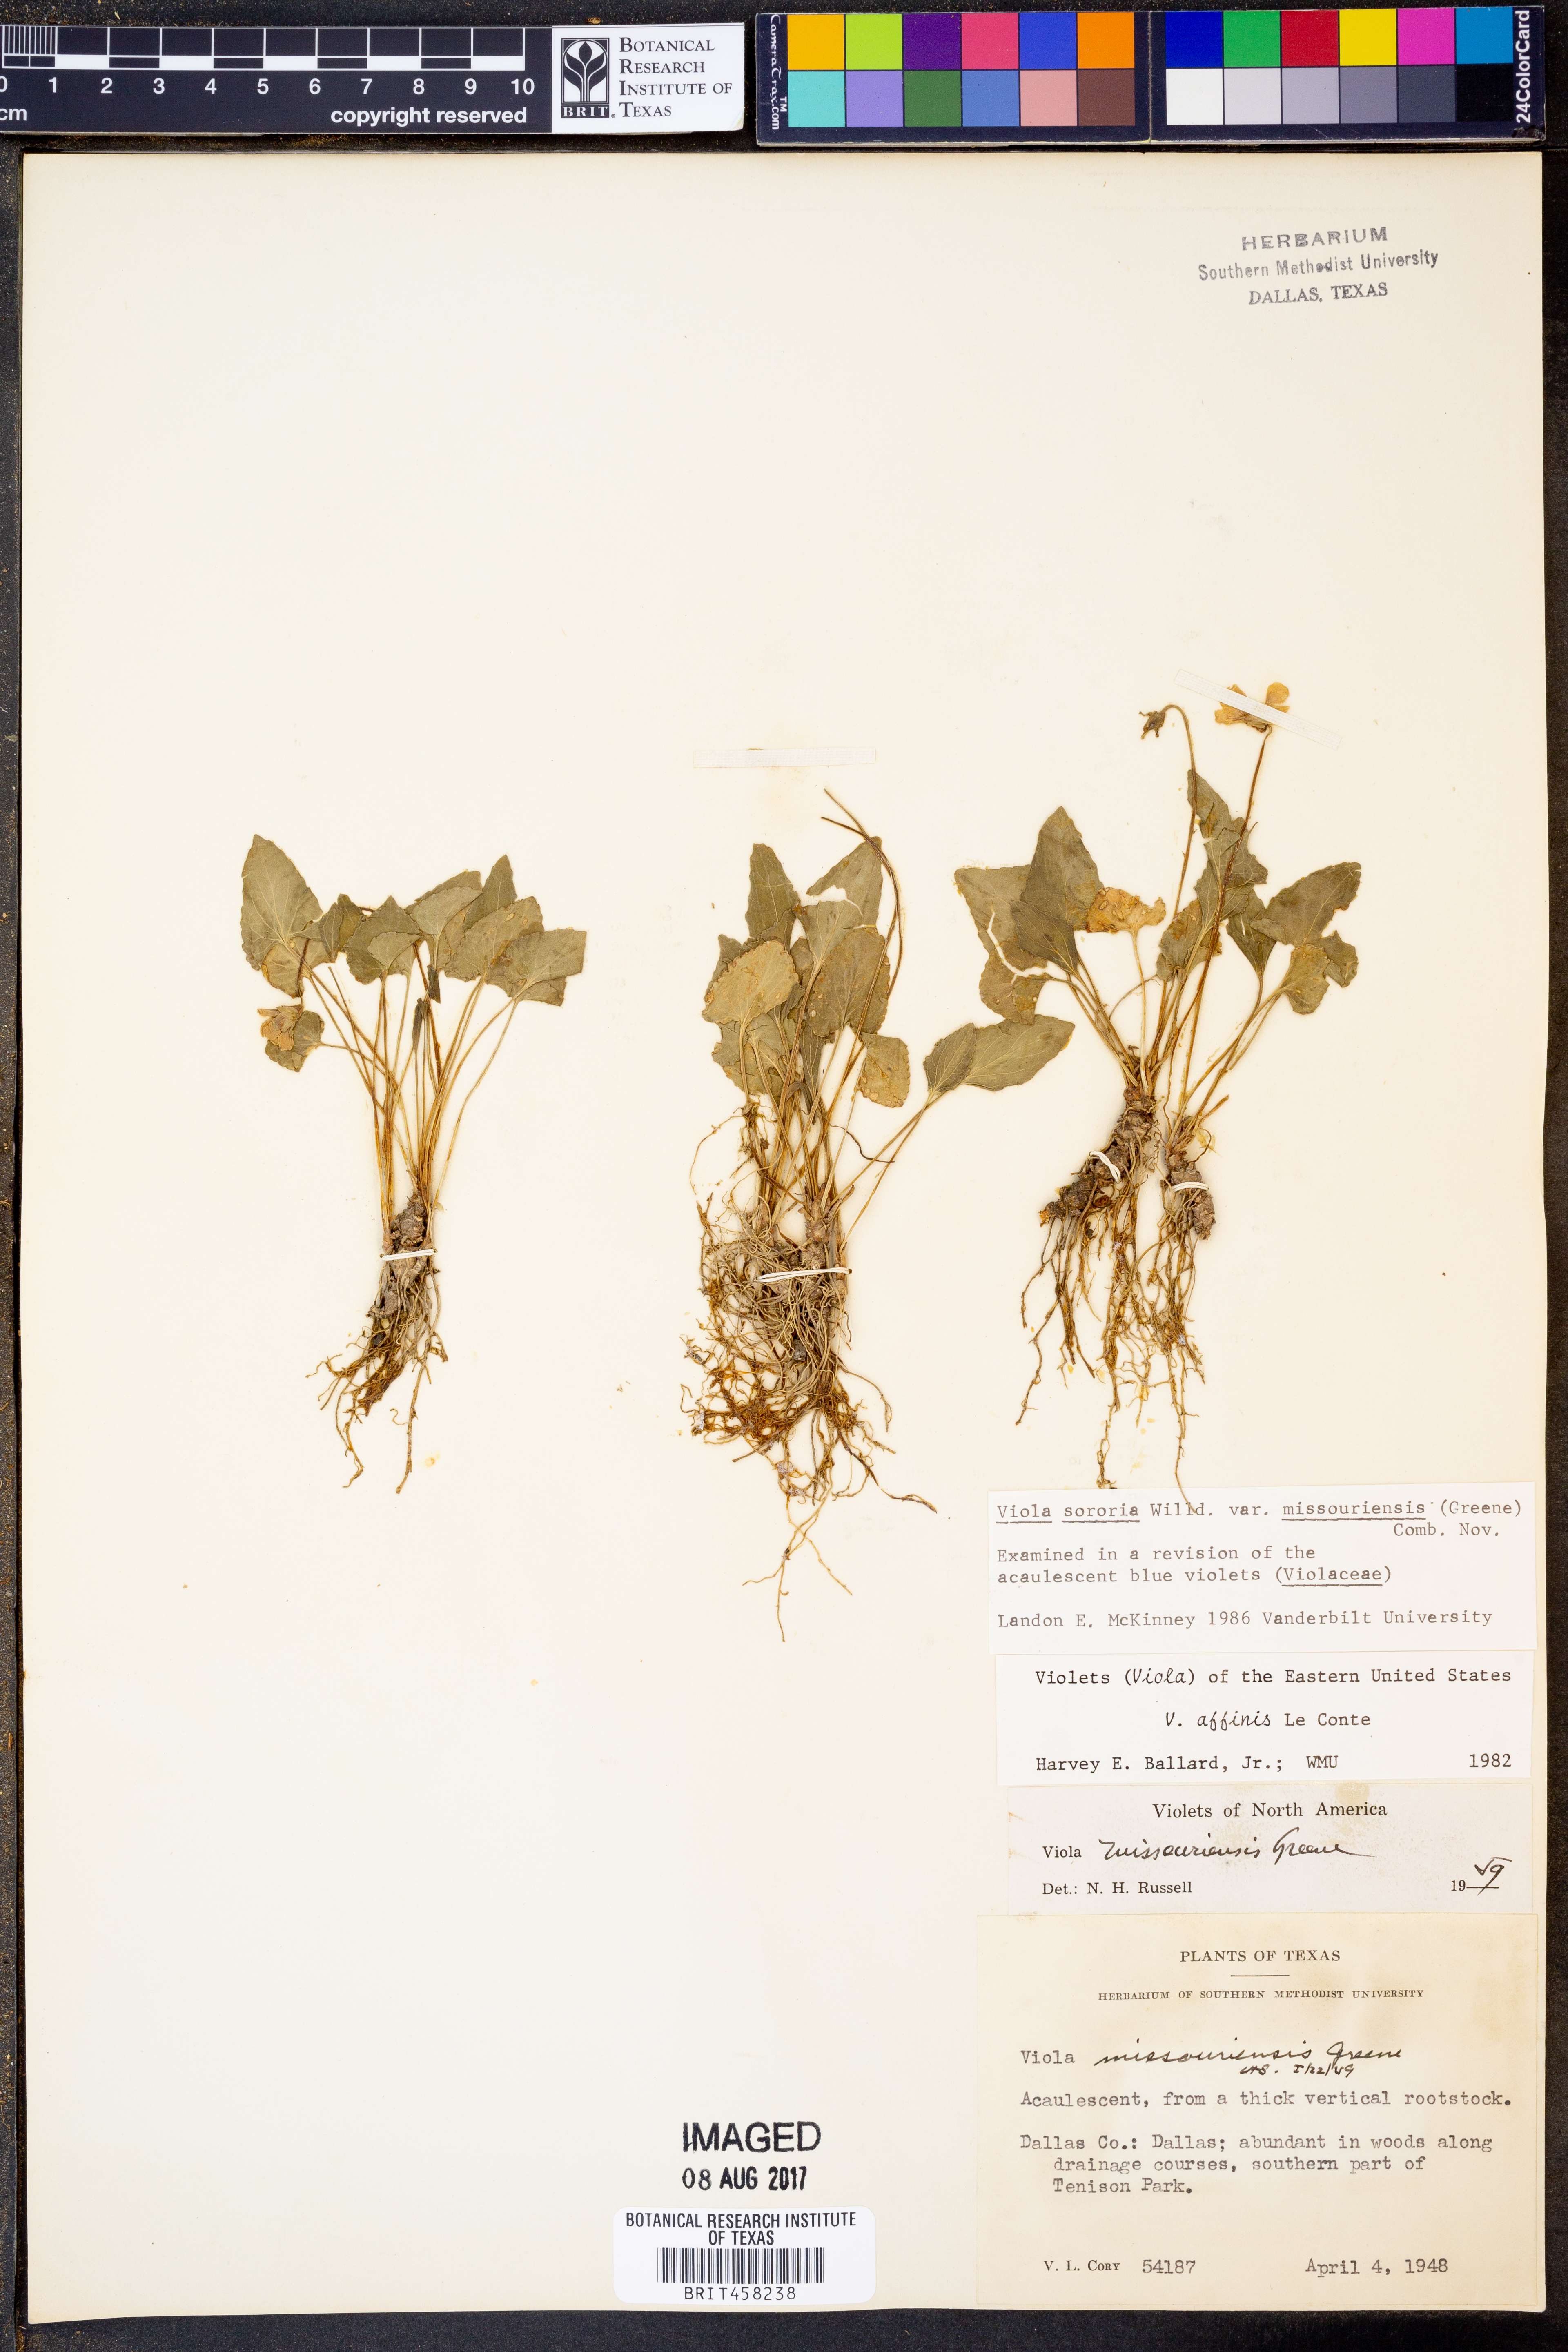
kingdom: Plantae
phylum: Tracheophyta
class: Magnoliopsida
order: Malpighiales
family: Violaceae
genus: Viola
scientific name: Viola missouriensis
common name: Missouri violet
